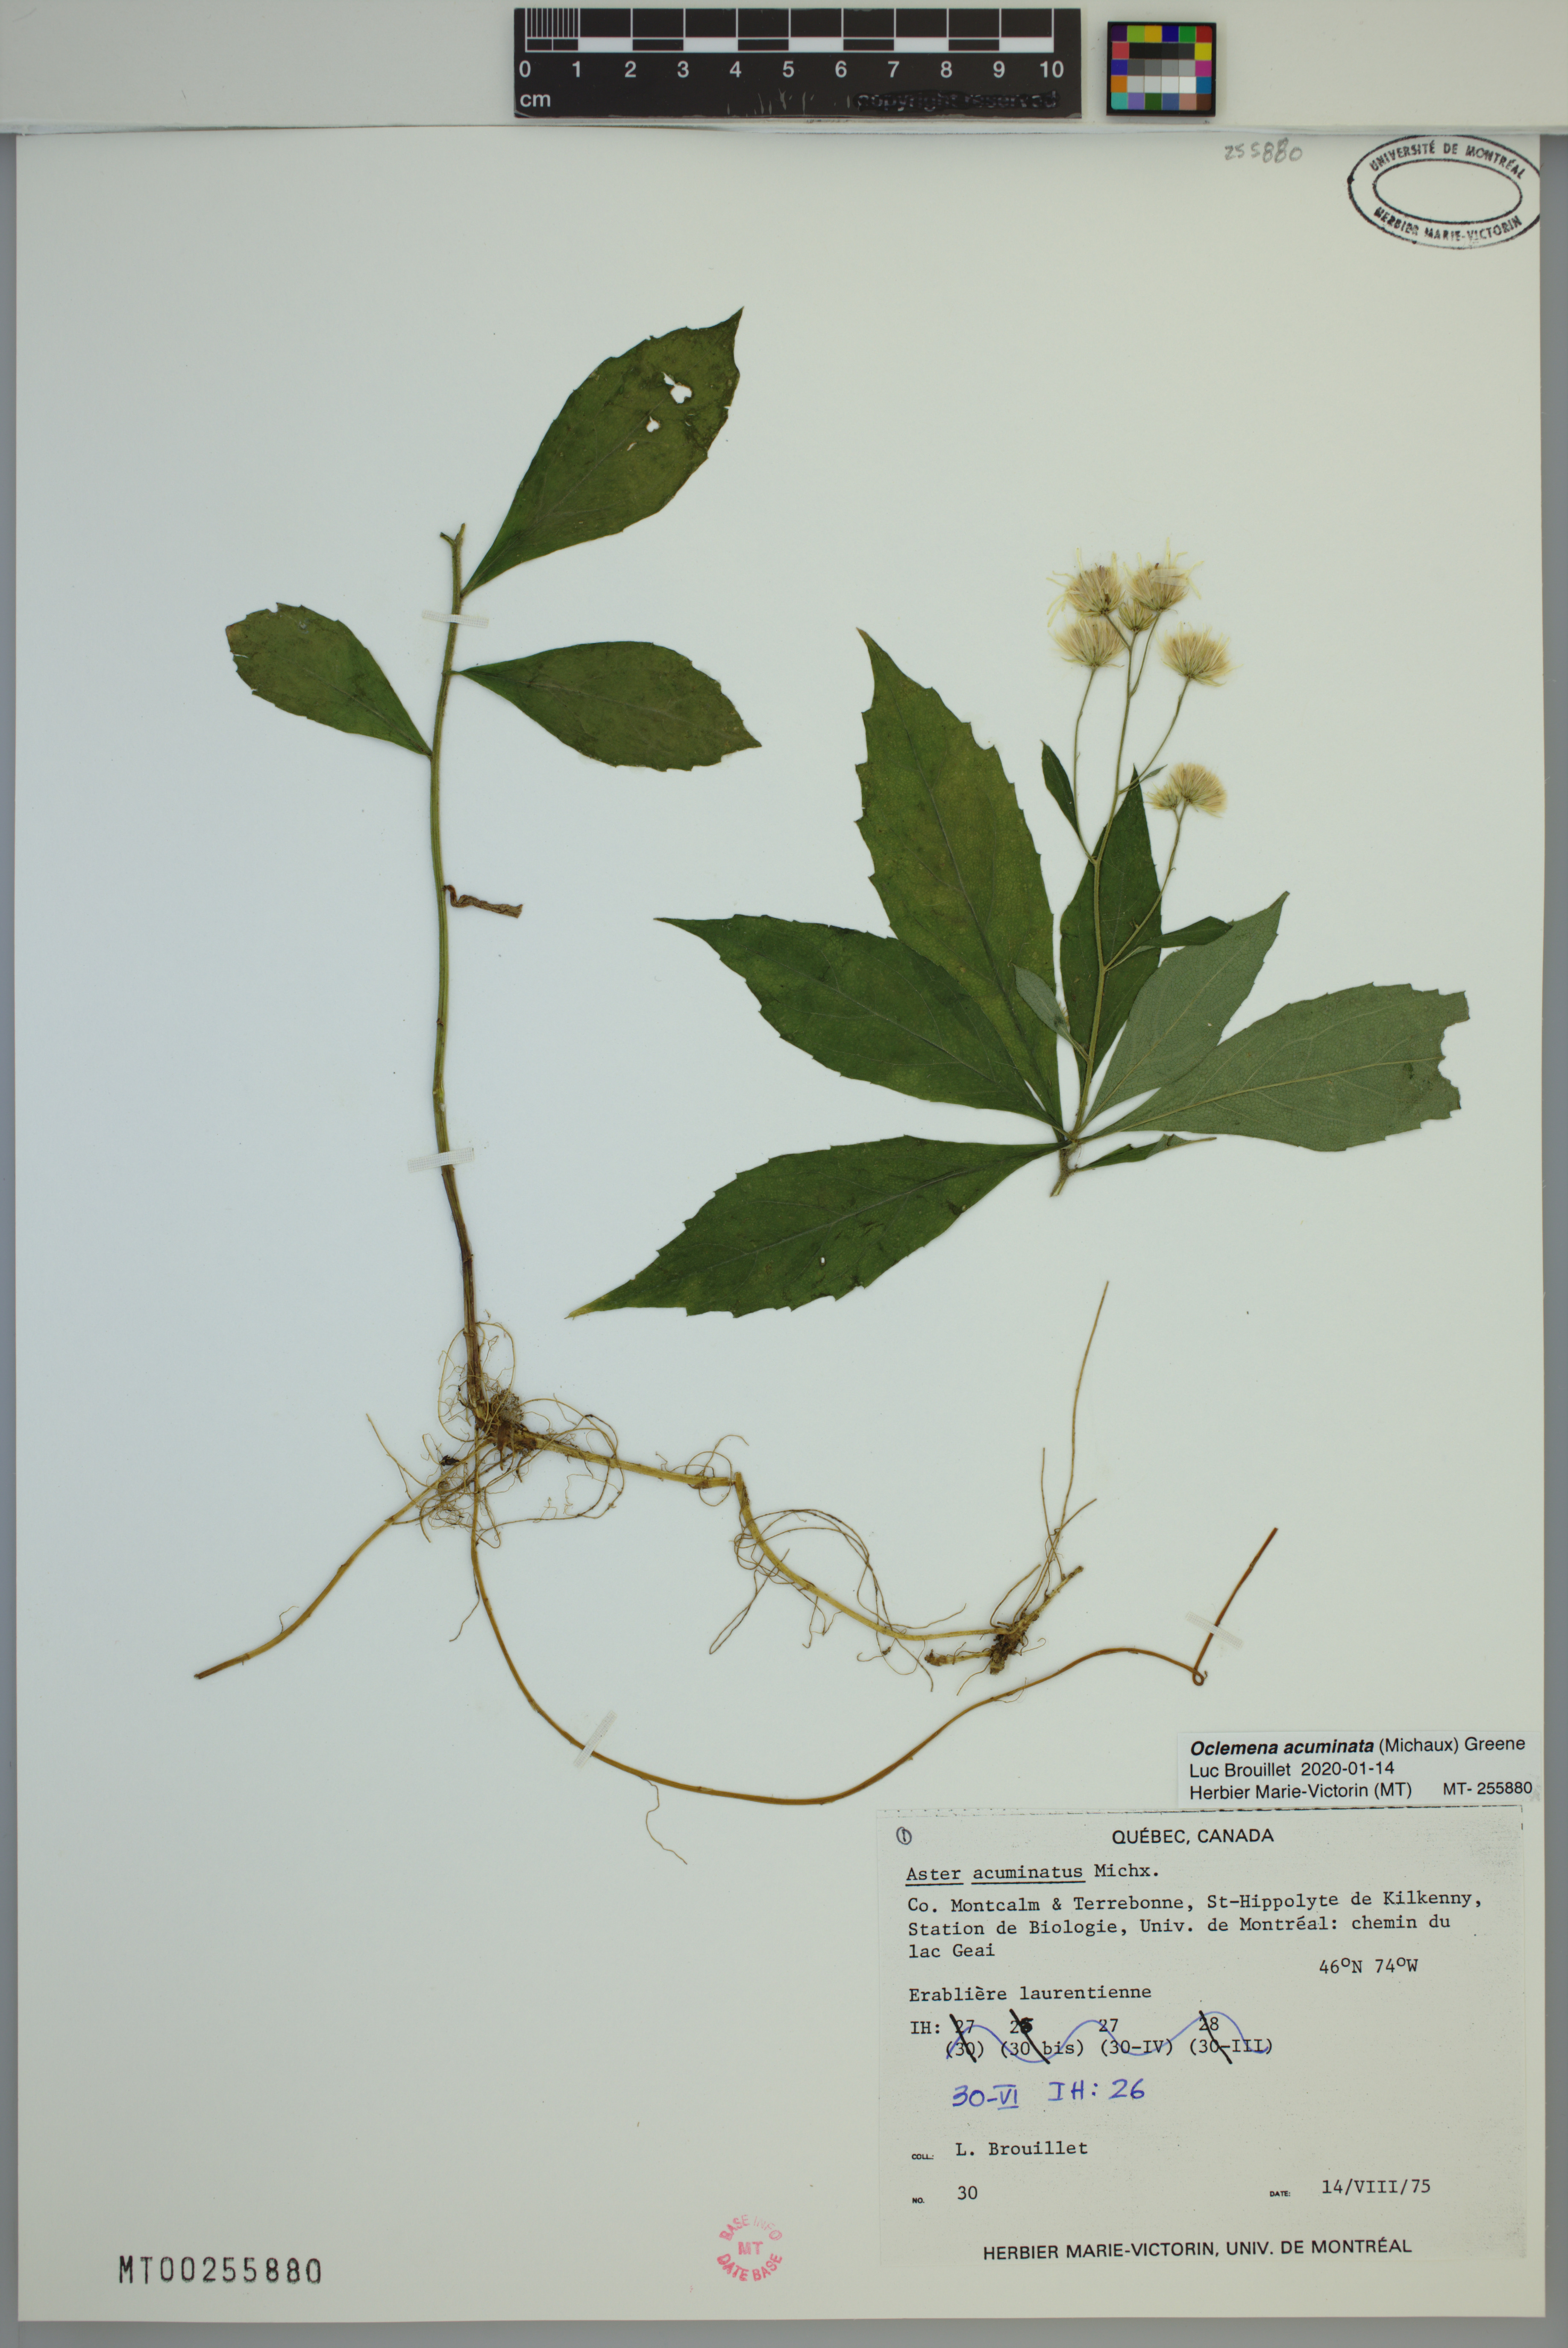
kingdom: Plantae
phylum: Tracheophyta
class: Magnoliopsida
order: Asterales
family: Asteraceae
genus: Oclemena
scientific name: Oclemena acuminata
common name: Mountain aster
